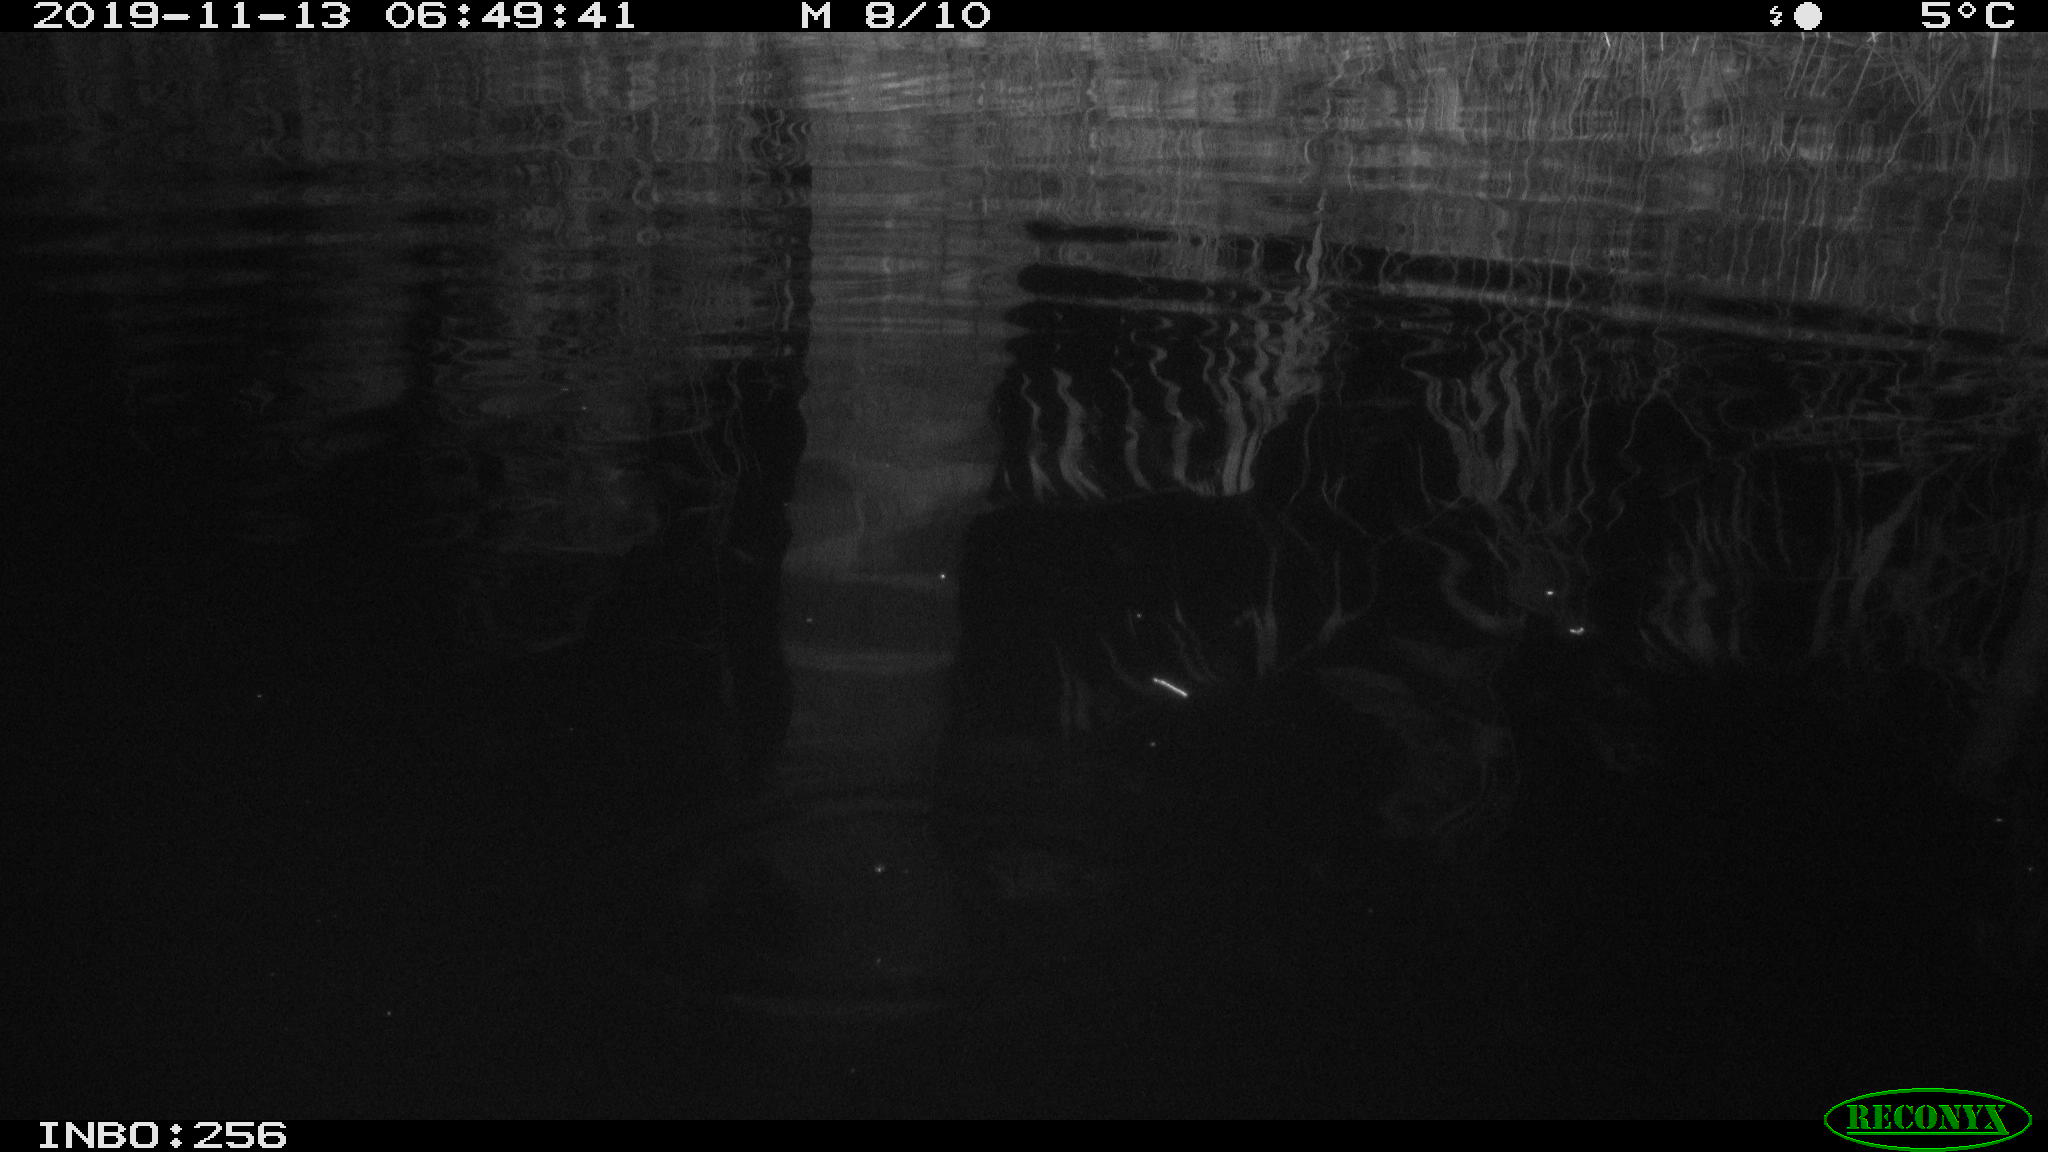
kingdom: Animalia
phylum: Chordata
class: Mammalia
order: Rodentia
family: Muridae
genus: Rattus
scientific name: Rattus norvegicus
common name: Brown rat
